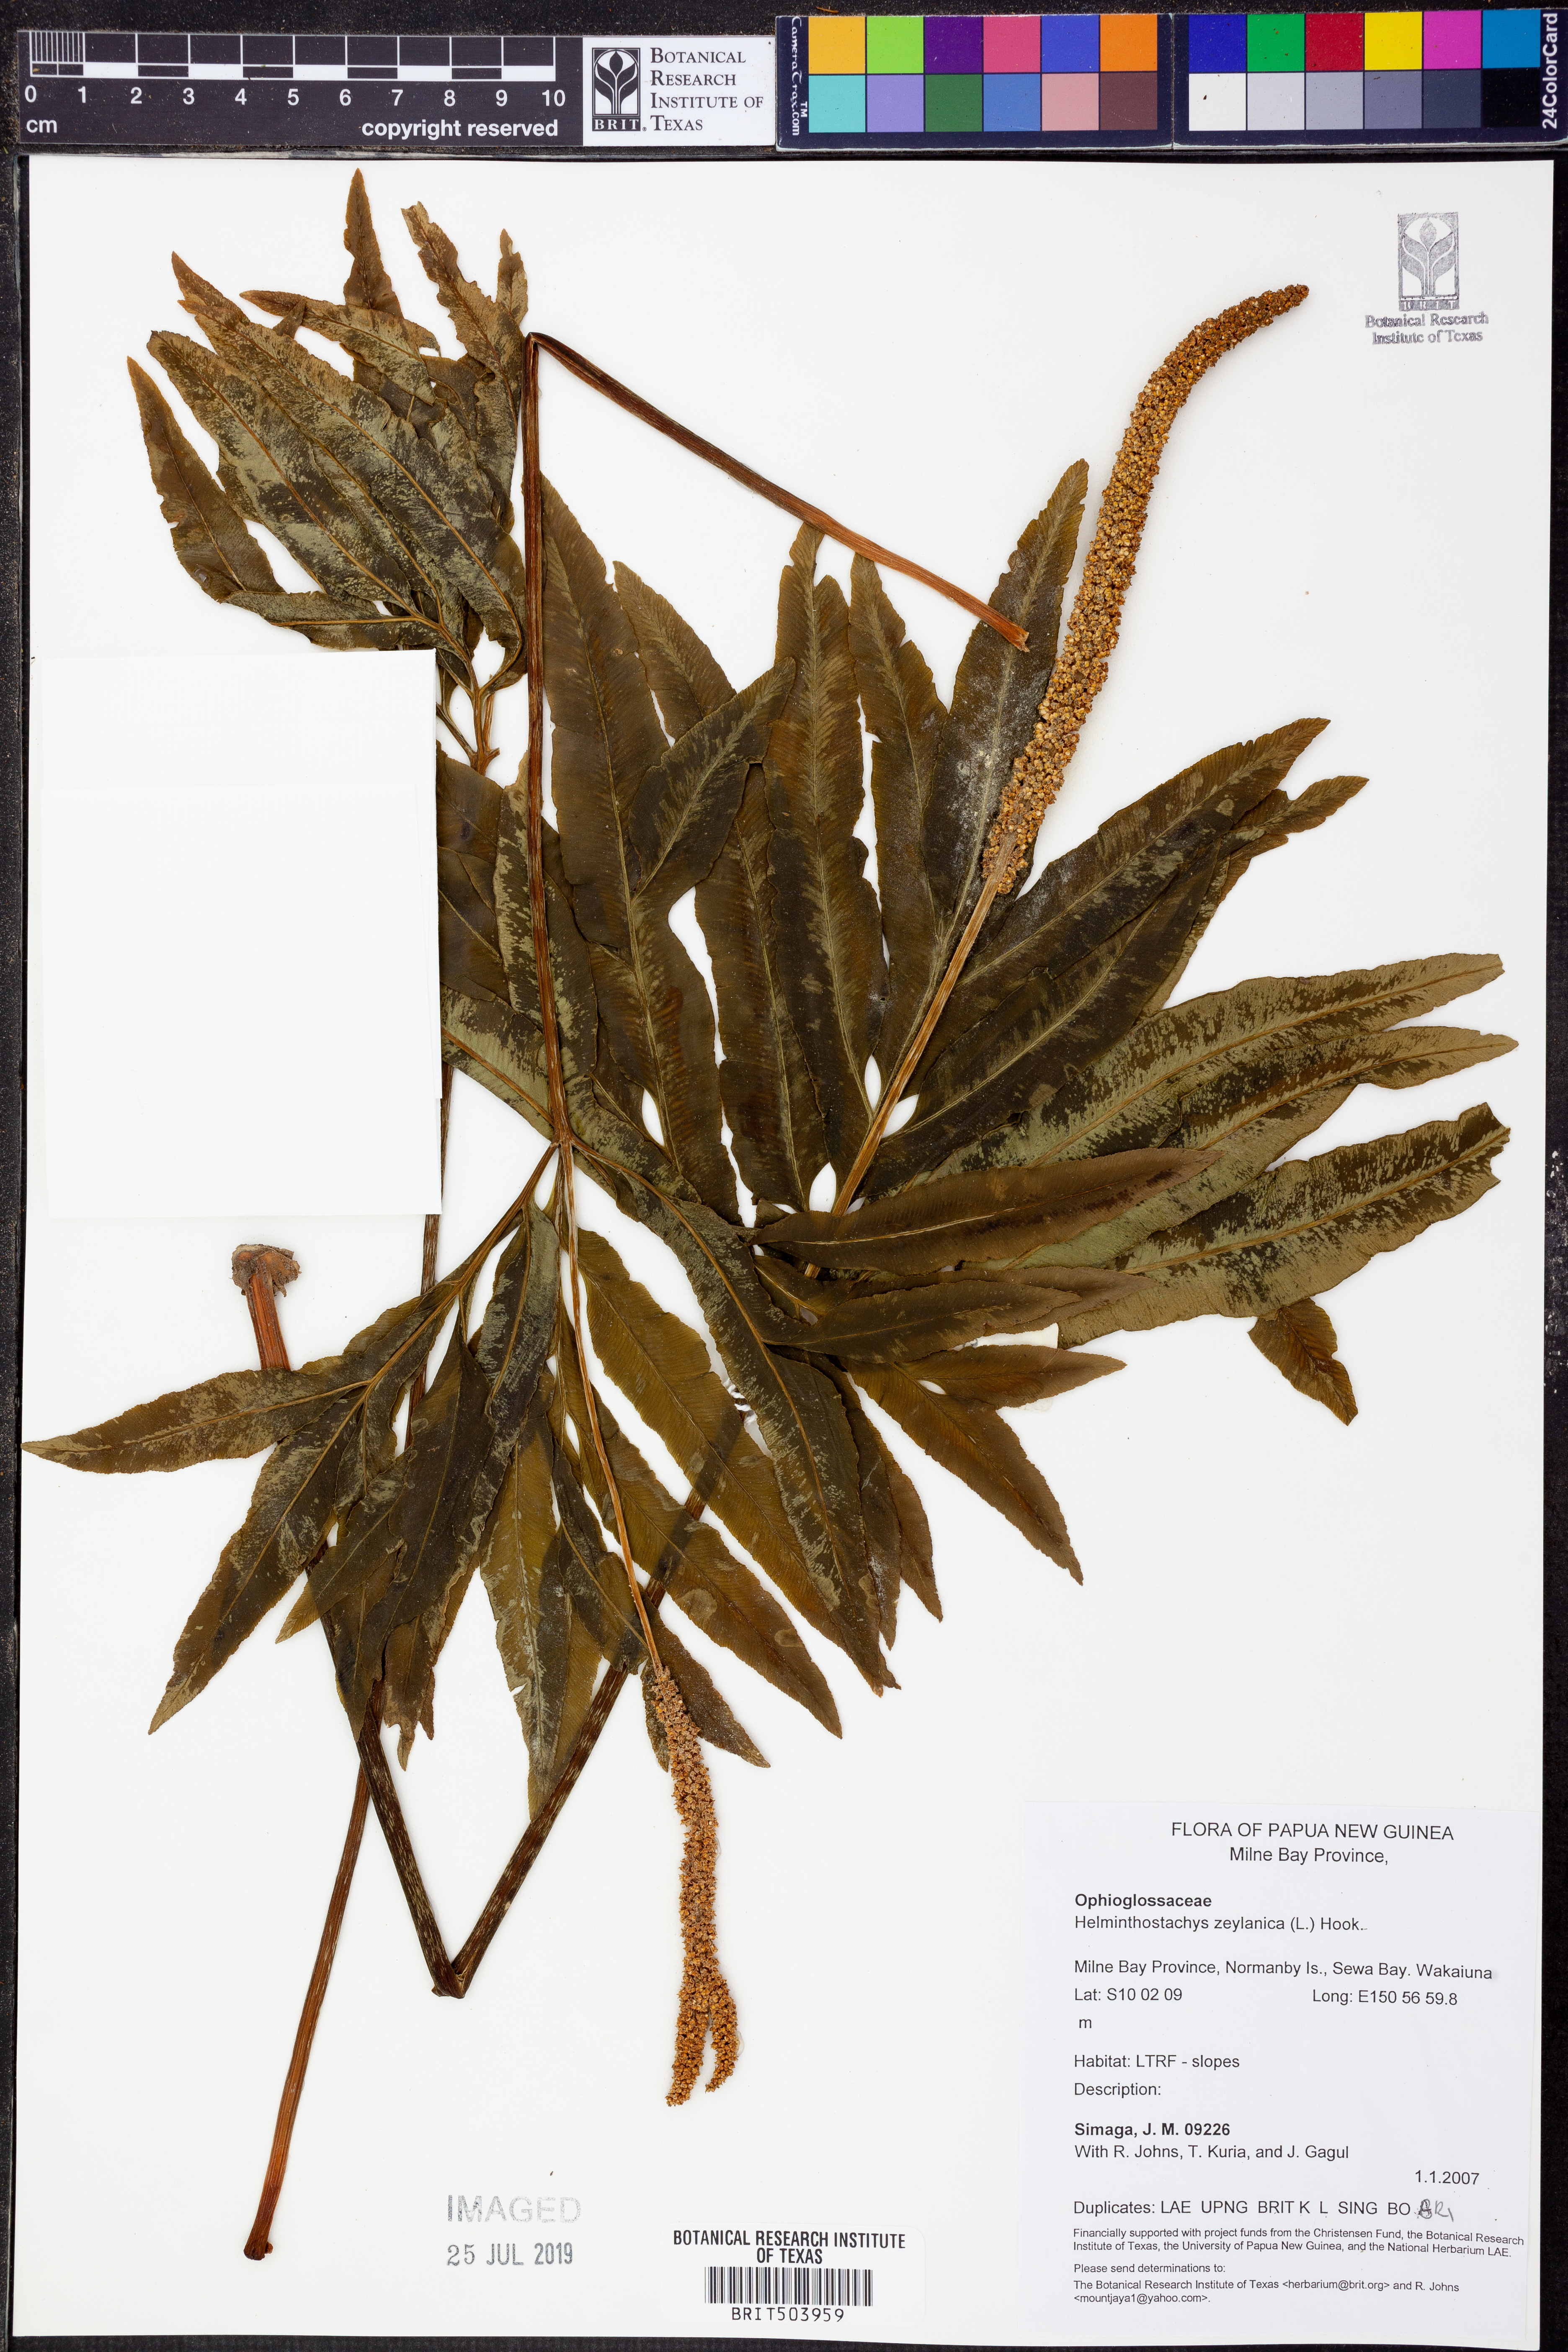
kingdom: Plantae
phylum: Tracheophyta
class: Polypodiopsida
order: Ophioglossales
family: Ophioglossaceae
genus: Helminthostachys
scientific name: Helminthostachys zeylanica
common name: Flowering fern
